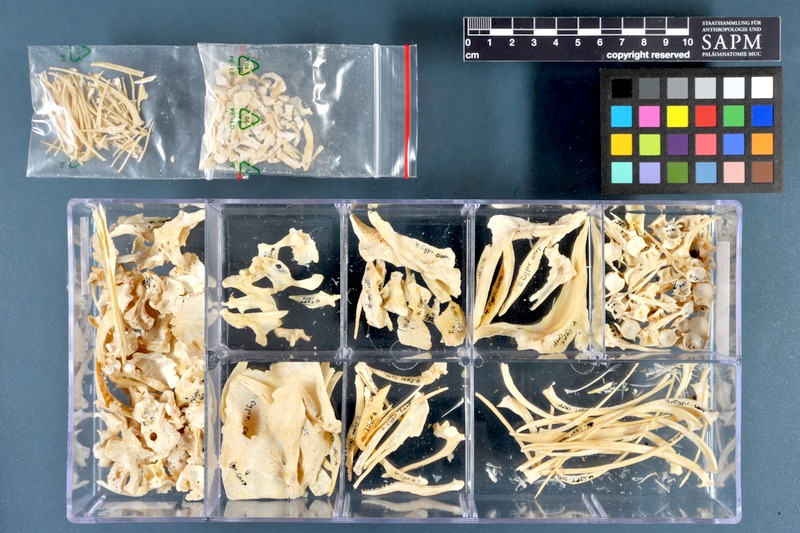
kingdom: Animalia
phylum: Chordata
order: Cypriniformes
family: Cyprinidae
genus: Cyprinus
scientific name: Cyprinus carpio
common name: Common carp
